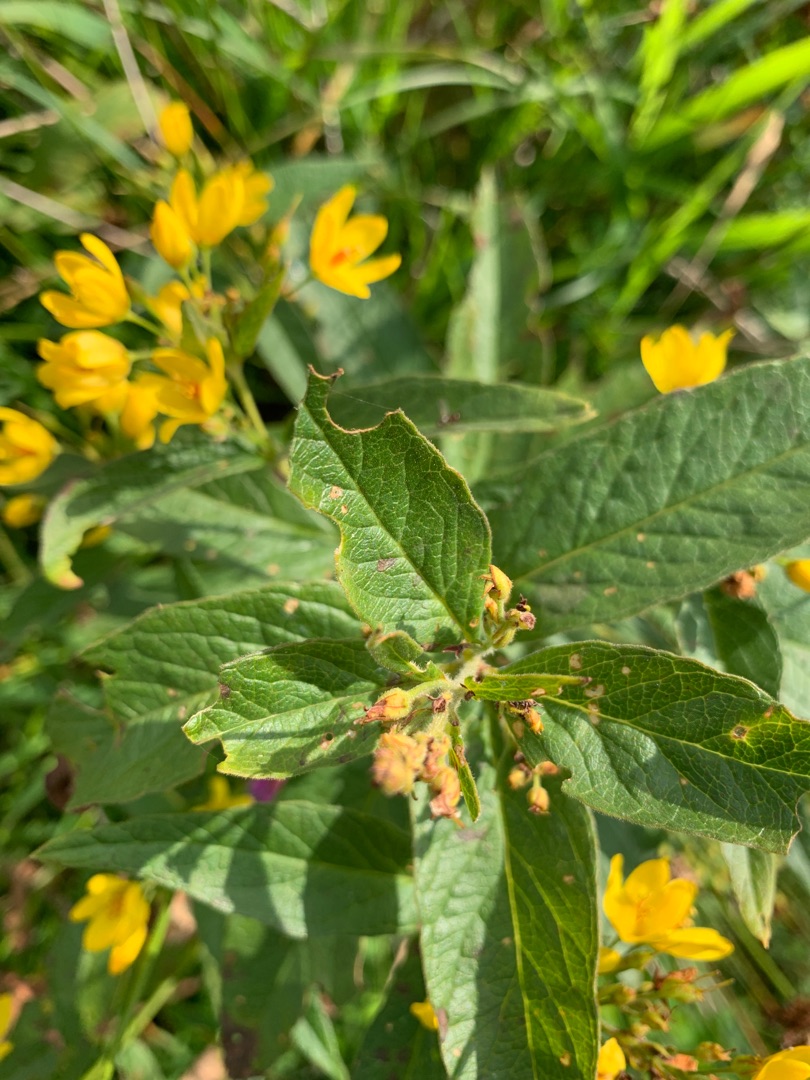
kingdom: Plantae
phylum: Tracheophyta
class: Magnoliopsida
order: Ericales
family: Primulaceae
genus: Lysimachia
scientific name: Lysimachia vulgaris
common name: Almindelig fredløs
